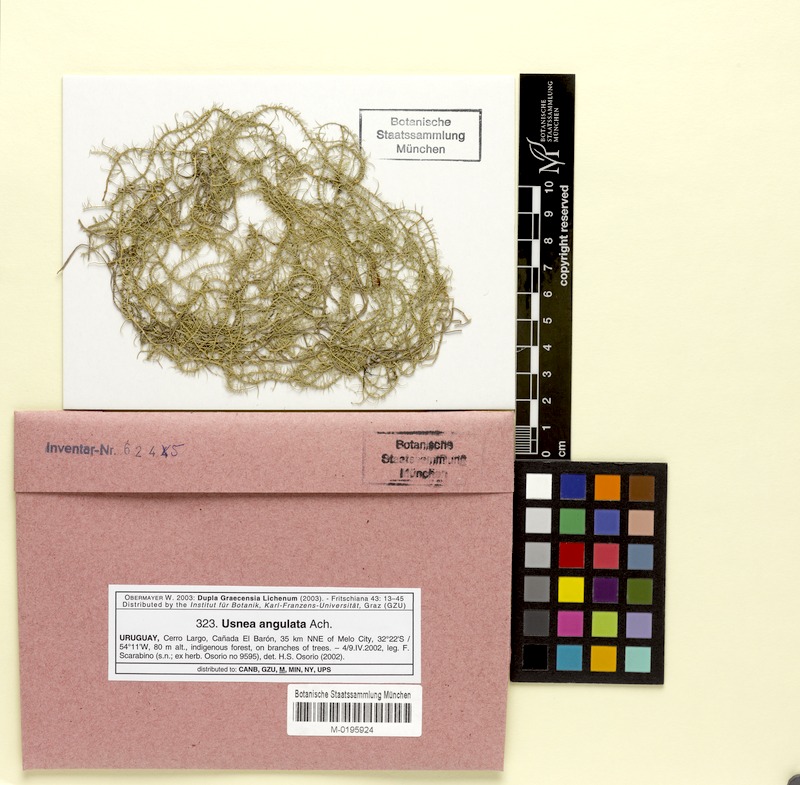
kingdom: Fungi
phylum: Ascomycota
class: Lecanoromycetes
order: Lecanorales
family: Parmeliaceae
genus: Usnea
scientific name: Usnea angulata
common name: Old-man’s beard lichen
